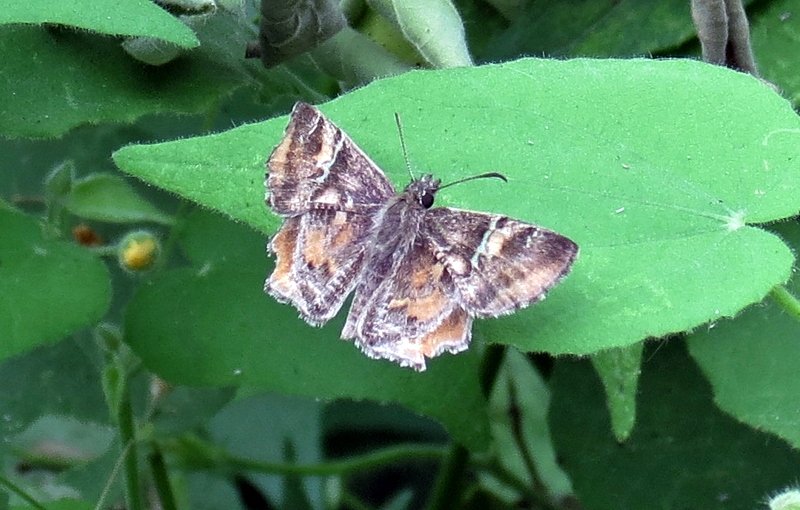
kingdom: Animalia
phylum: Arthropoda
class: Insecta
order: Lepidoptera
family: Hesperiidae
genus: Systasea
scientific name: Systasea pulverulenta
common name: Texas Powdered-Skipper
